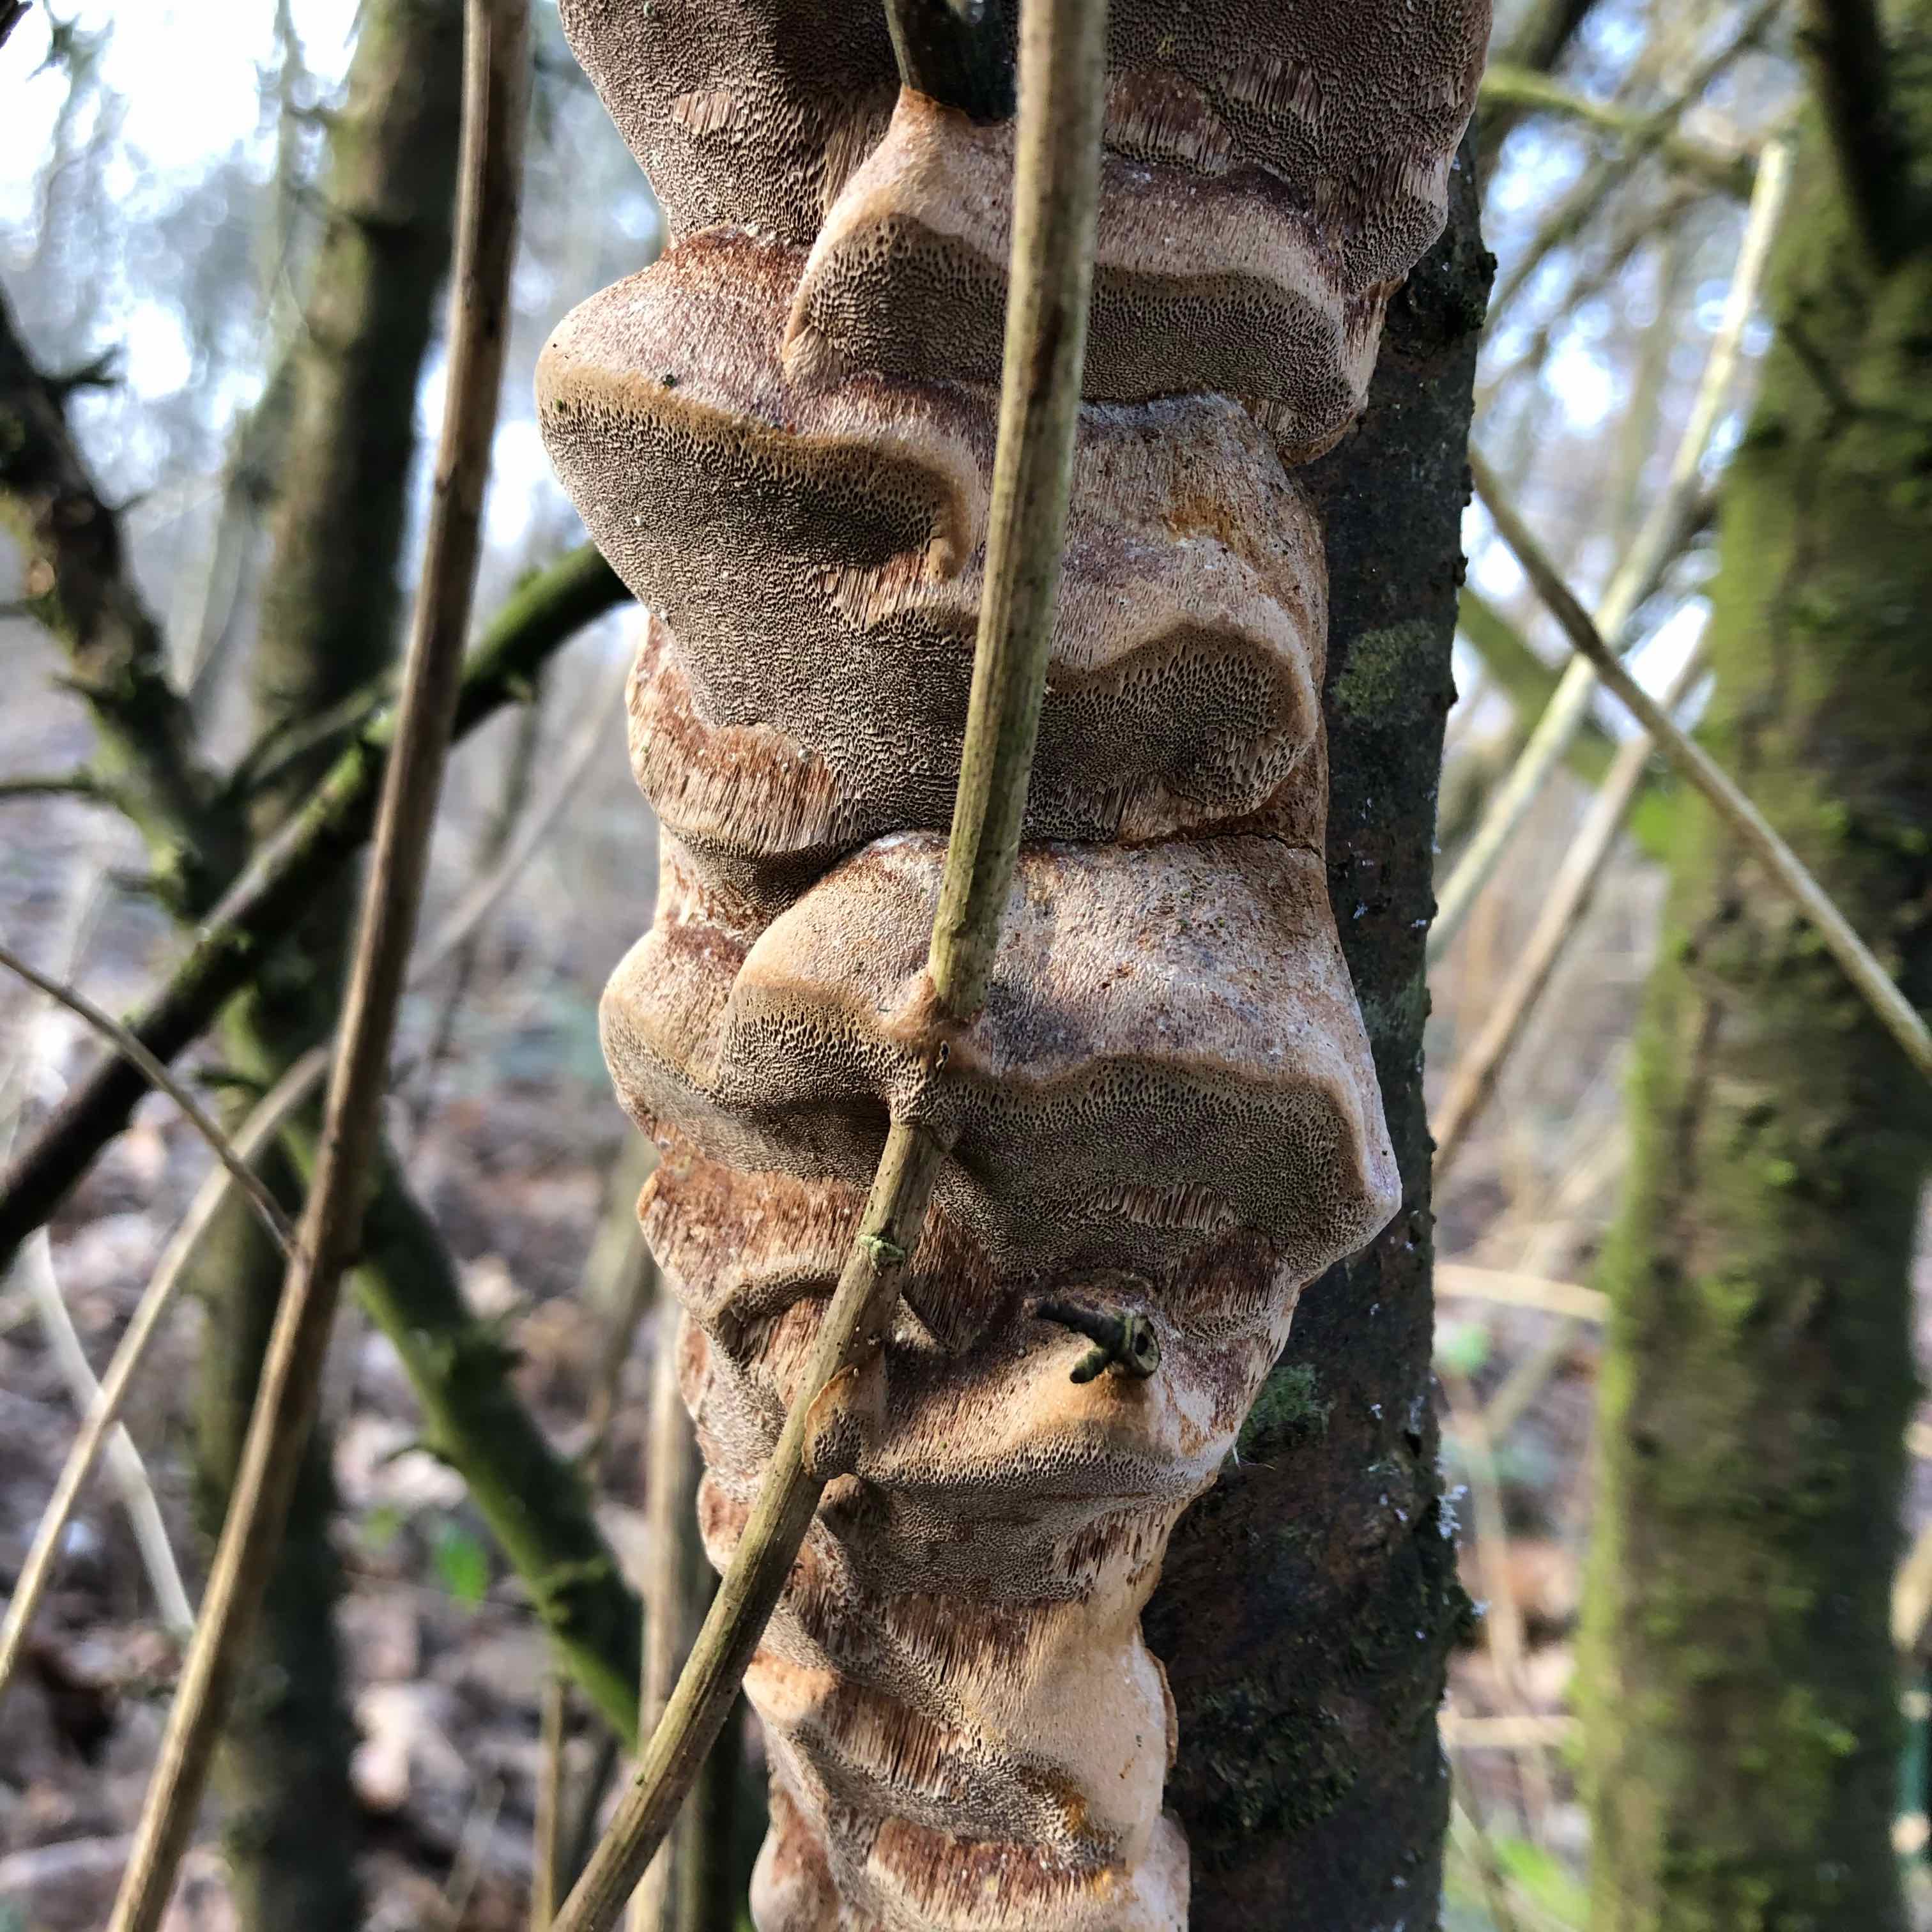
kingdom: Fungi
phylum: Basidiomycota
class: Agaricomycetes
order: Hymenochaetales
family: Hymenochaetaceae
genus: Phellinus
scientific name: Phellinus pomaceus
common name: blomme-ildporesvamp
